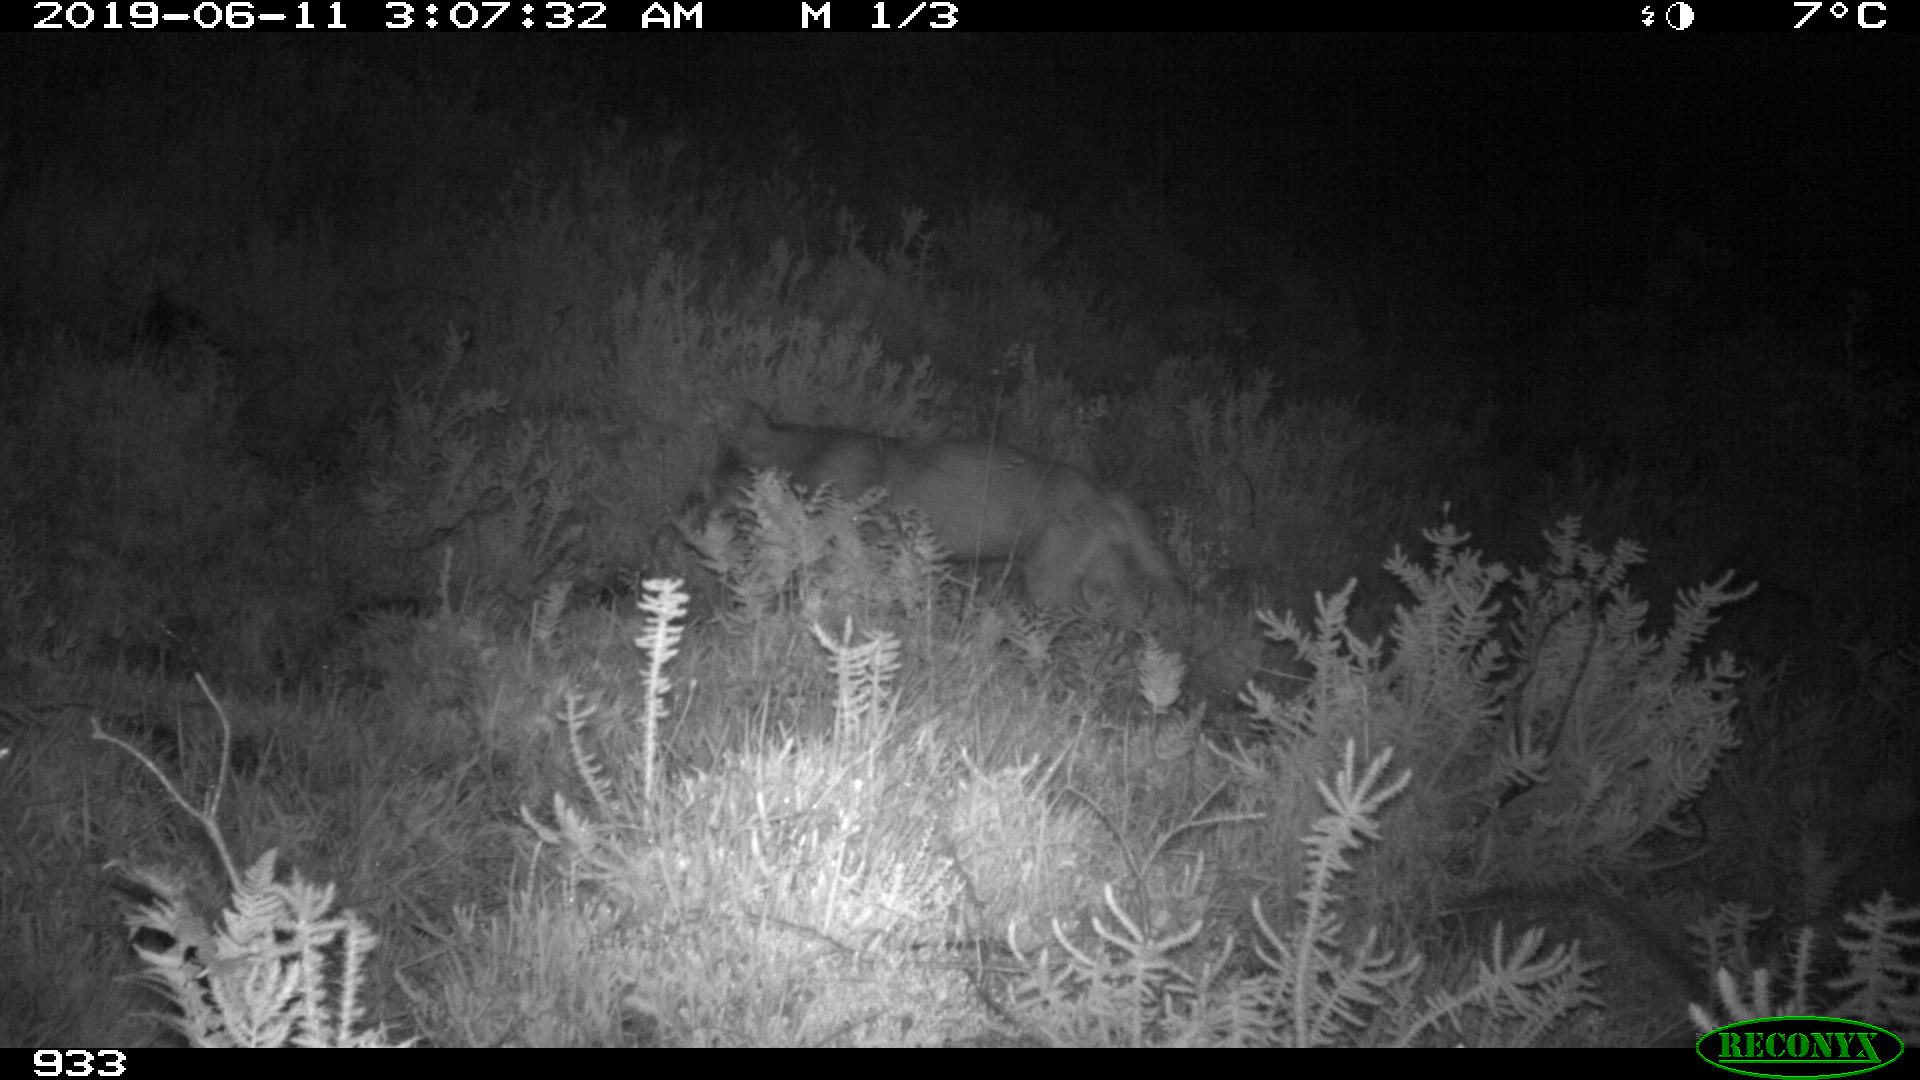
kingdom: Animalia
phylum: Chordata
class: Mammalia
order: Carnivora
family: Canidae
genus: Canis
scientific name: Canis lupus
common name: Gray wolf
